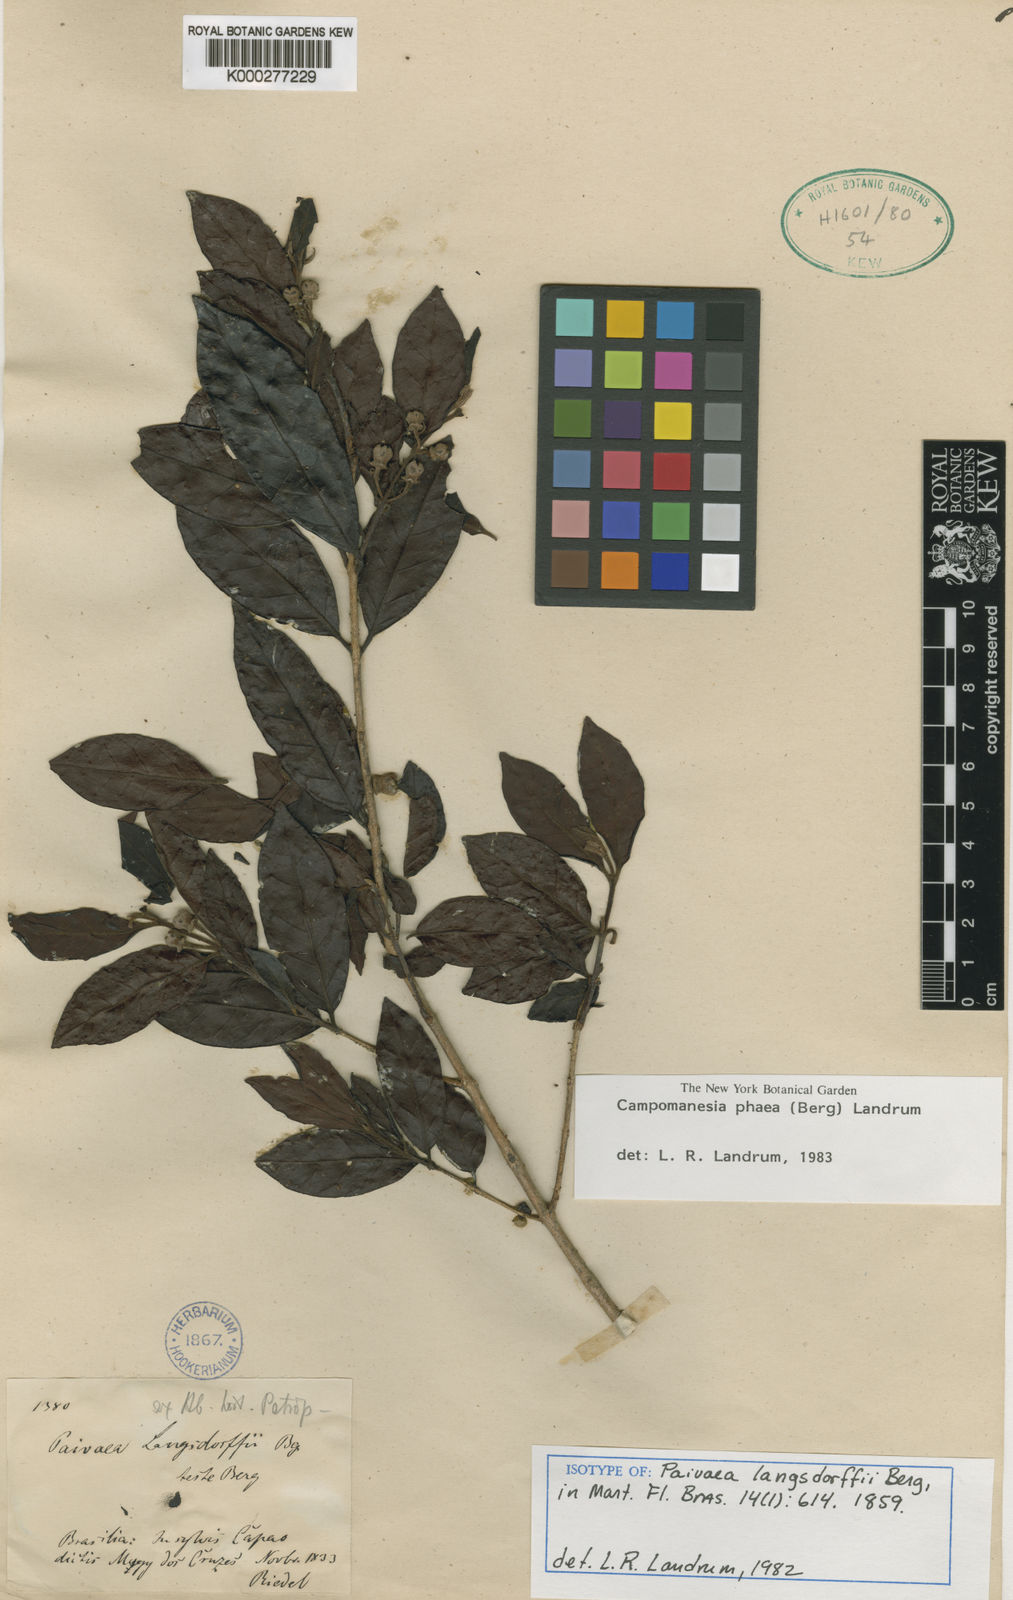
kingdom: Plantae
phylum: Tracheophyta
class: Magnoliopsida
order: Myrtales
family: Myrtaceae
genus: Campomanesia
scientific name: Campomanesia phaea
